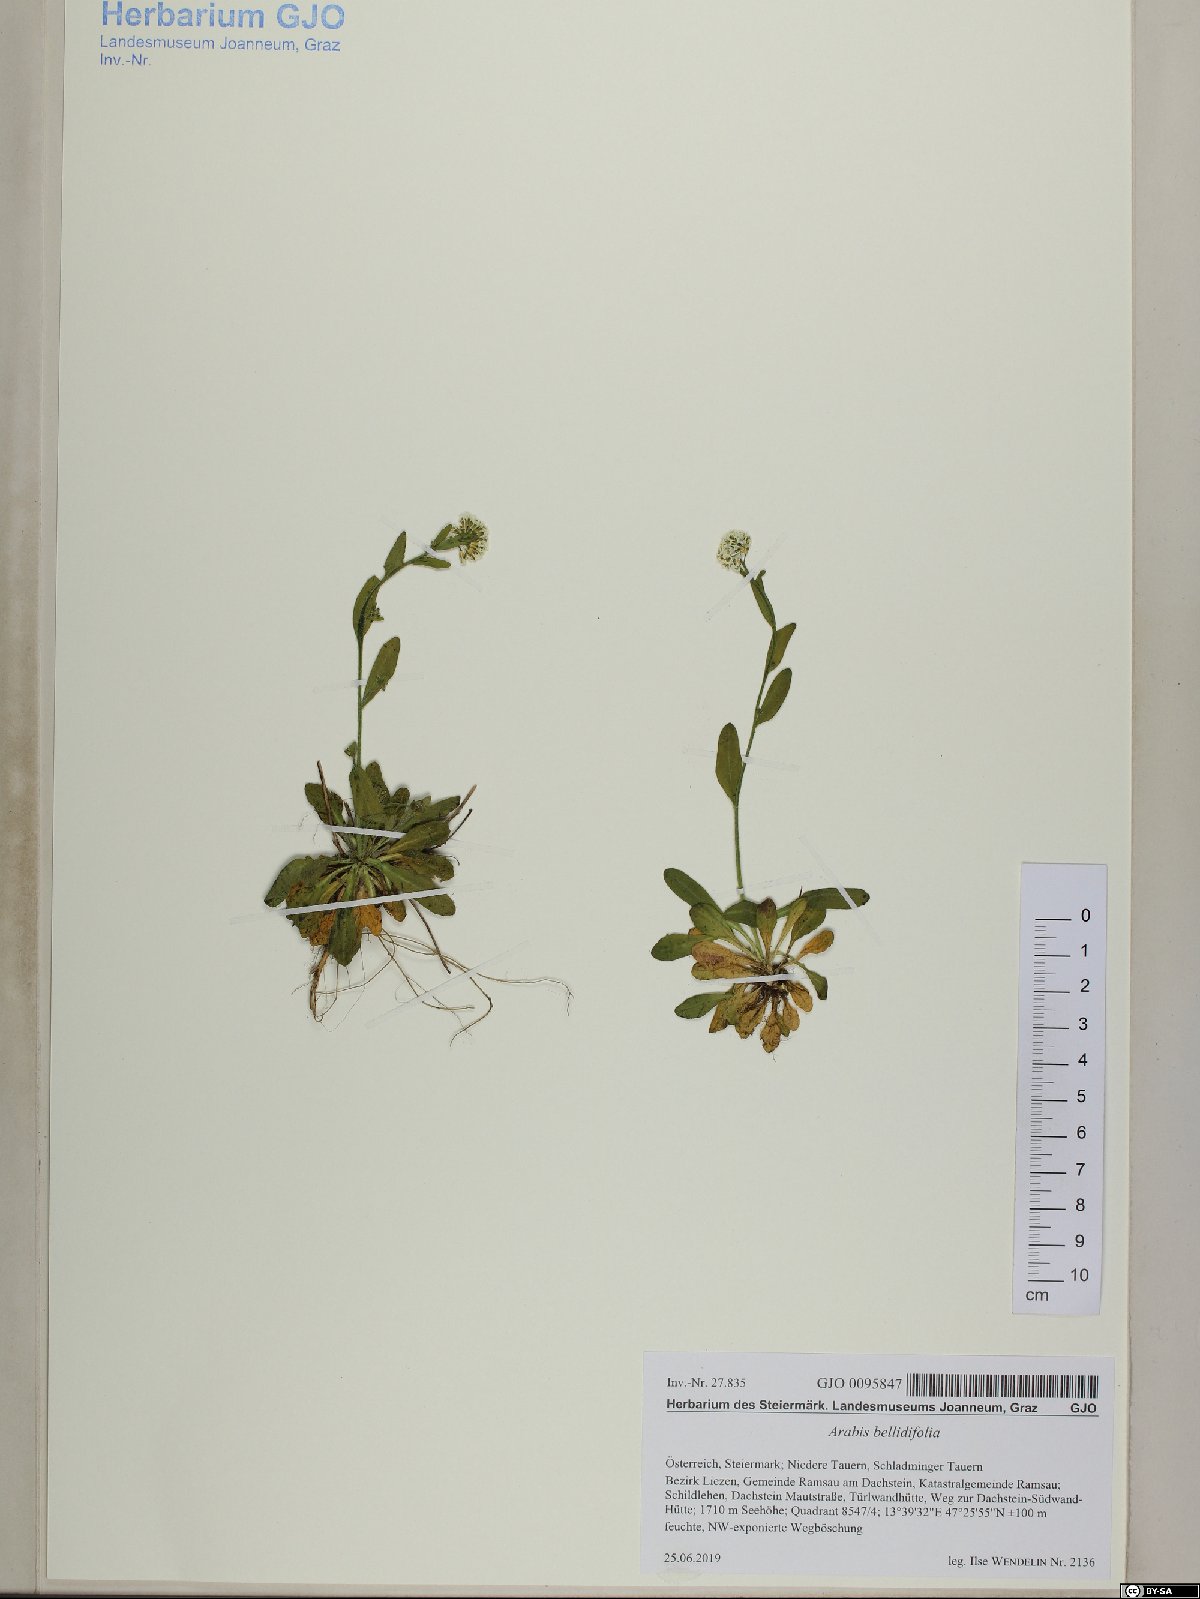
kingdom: Plantae
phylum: Tracheophyta
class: Magnoliopsida
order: Brassicales
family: Brassicaceae
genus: Arabis
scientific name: Arabis pumila
